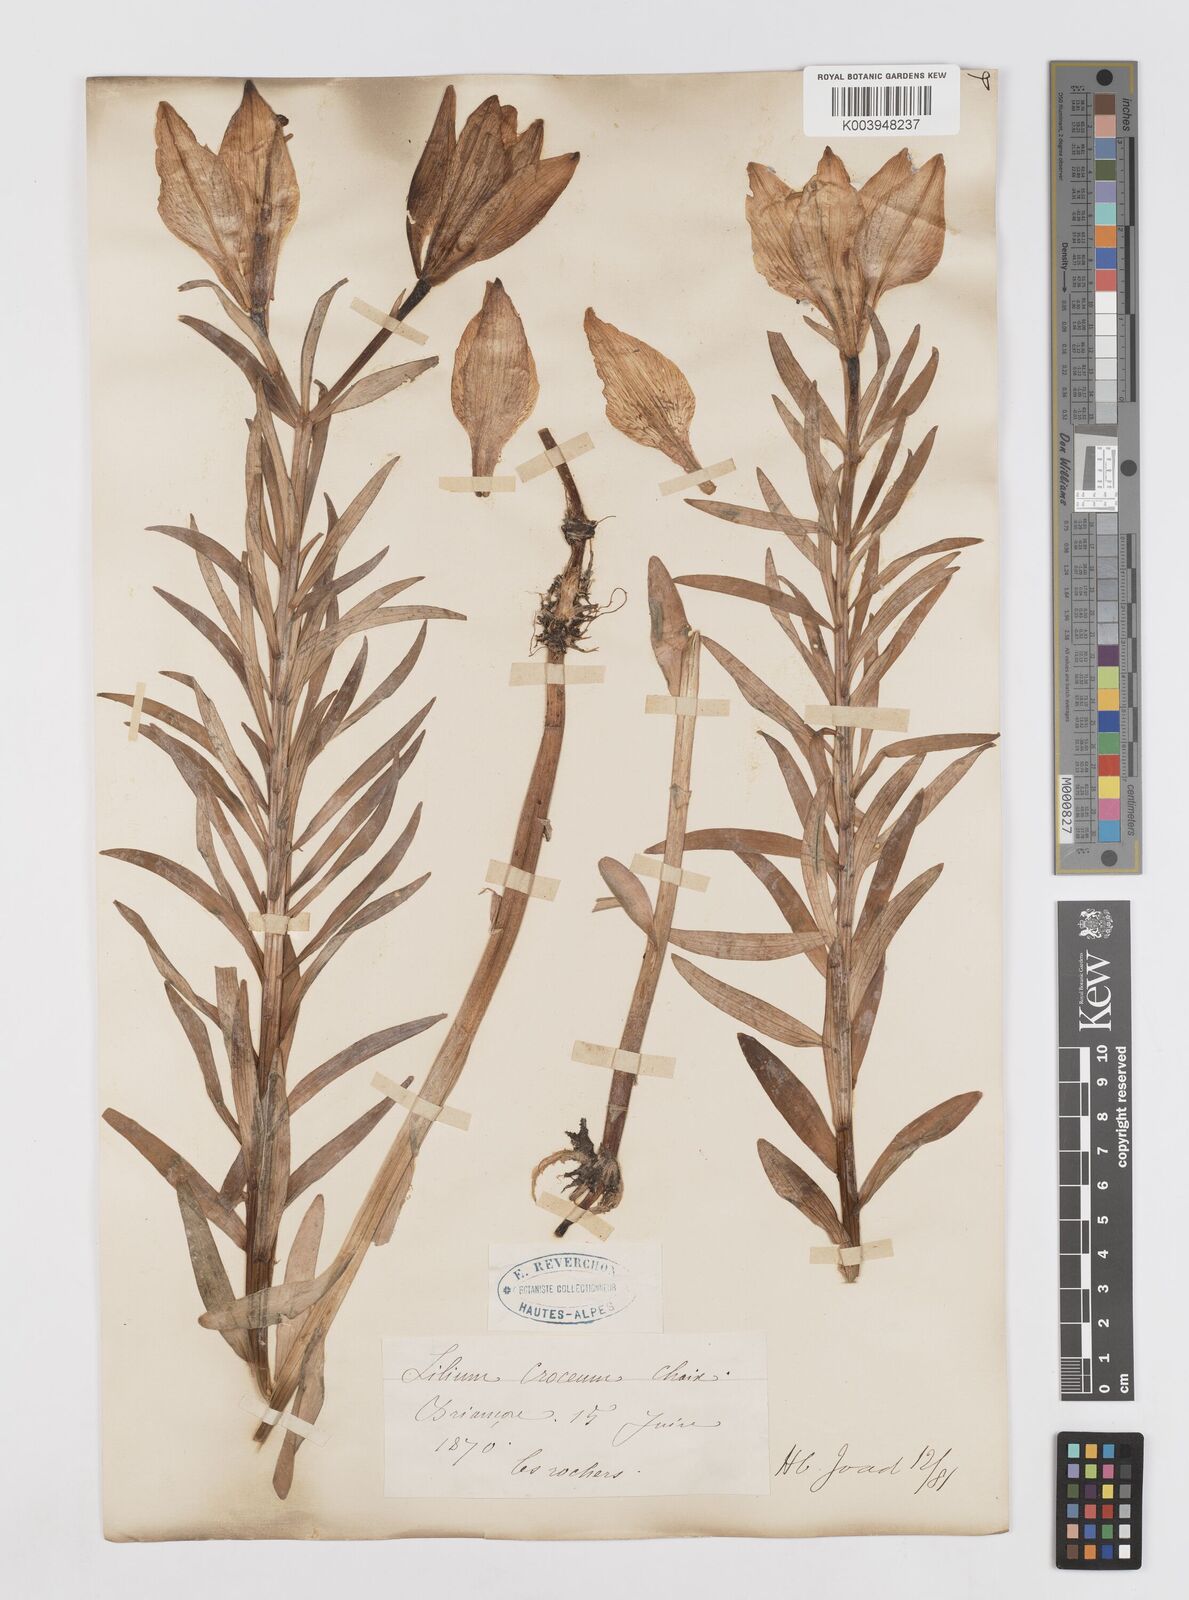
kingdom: Plantae
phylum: Tracheophyta
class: Liliopsida
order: Liliales
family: Liliaceae
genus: Lilium
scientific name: Lilium bulbiferum
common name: Orange lily
